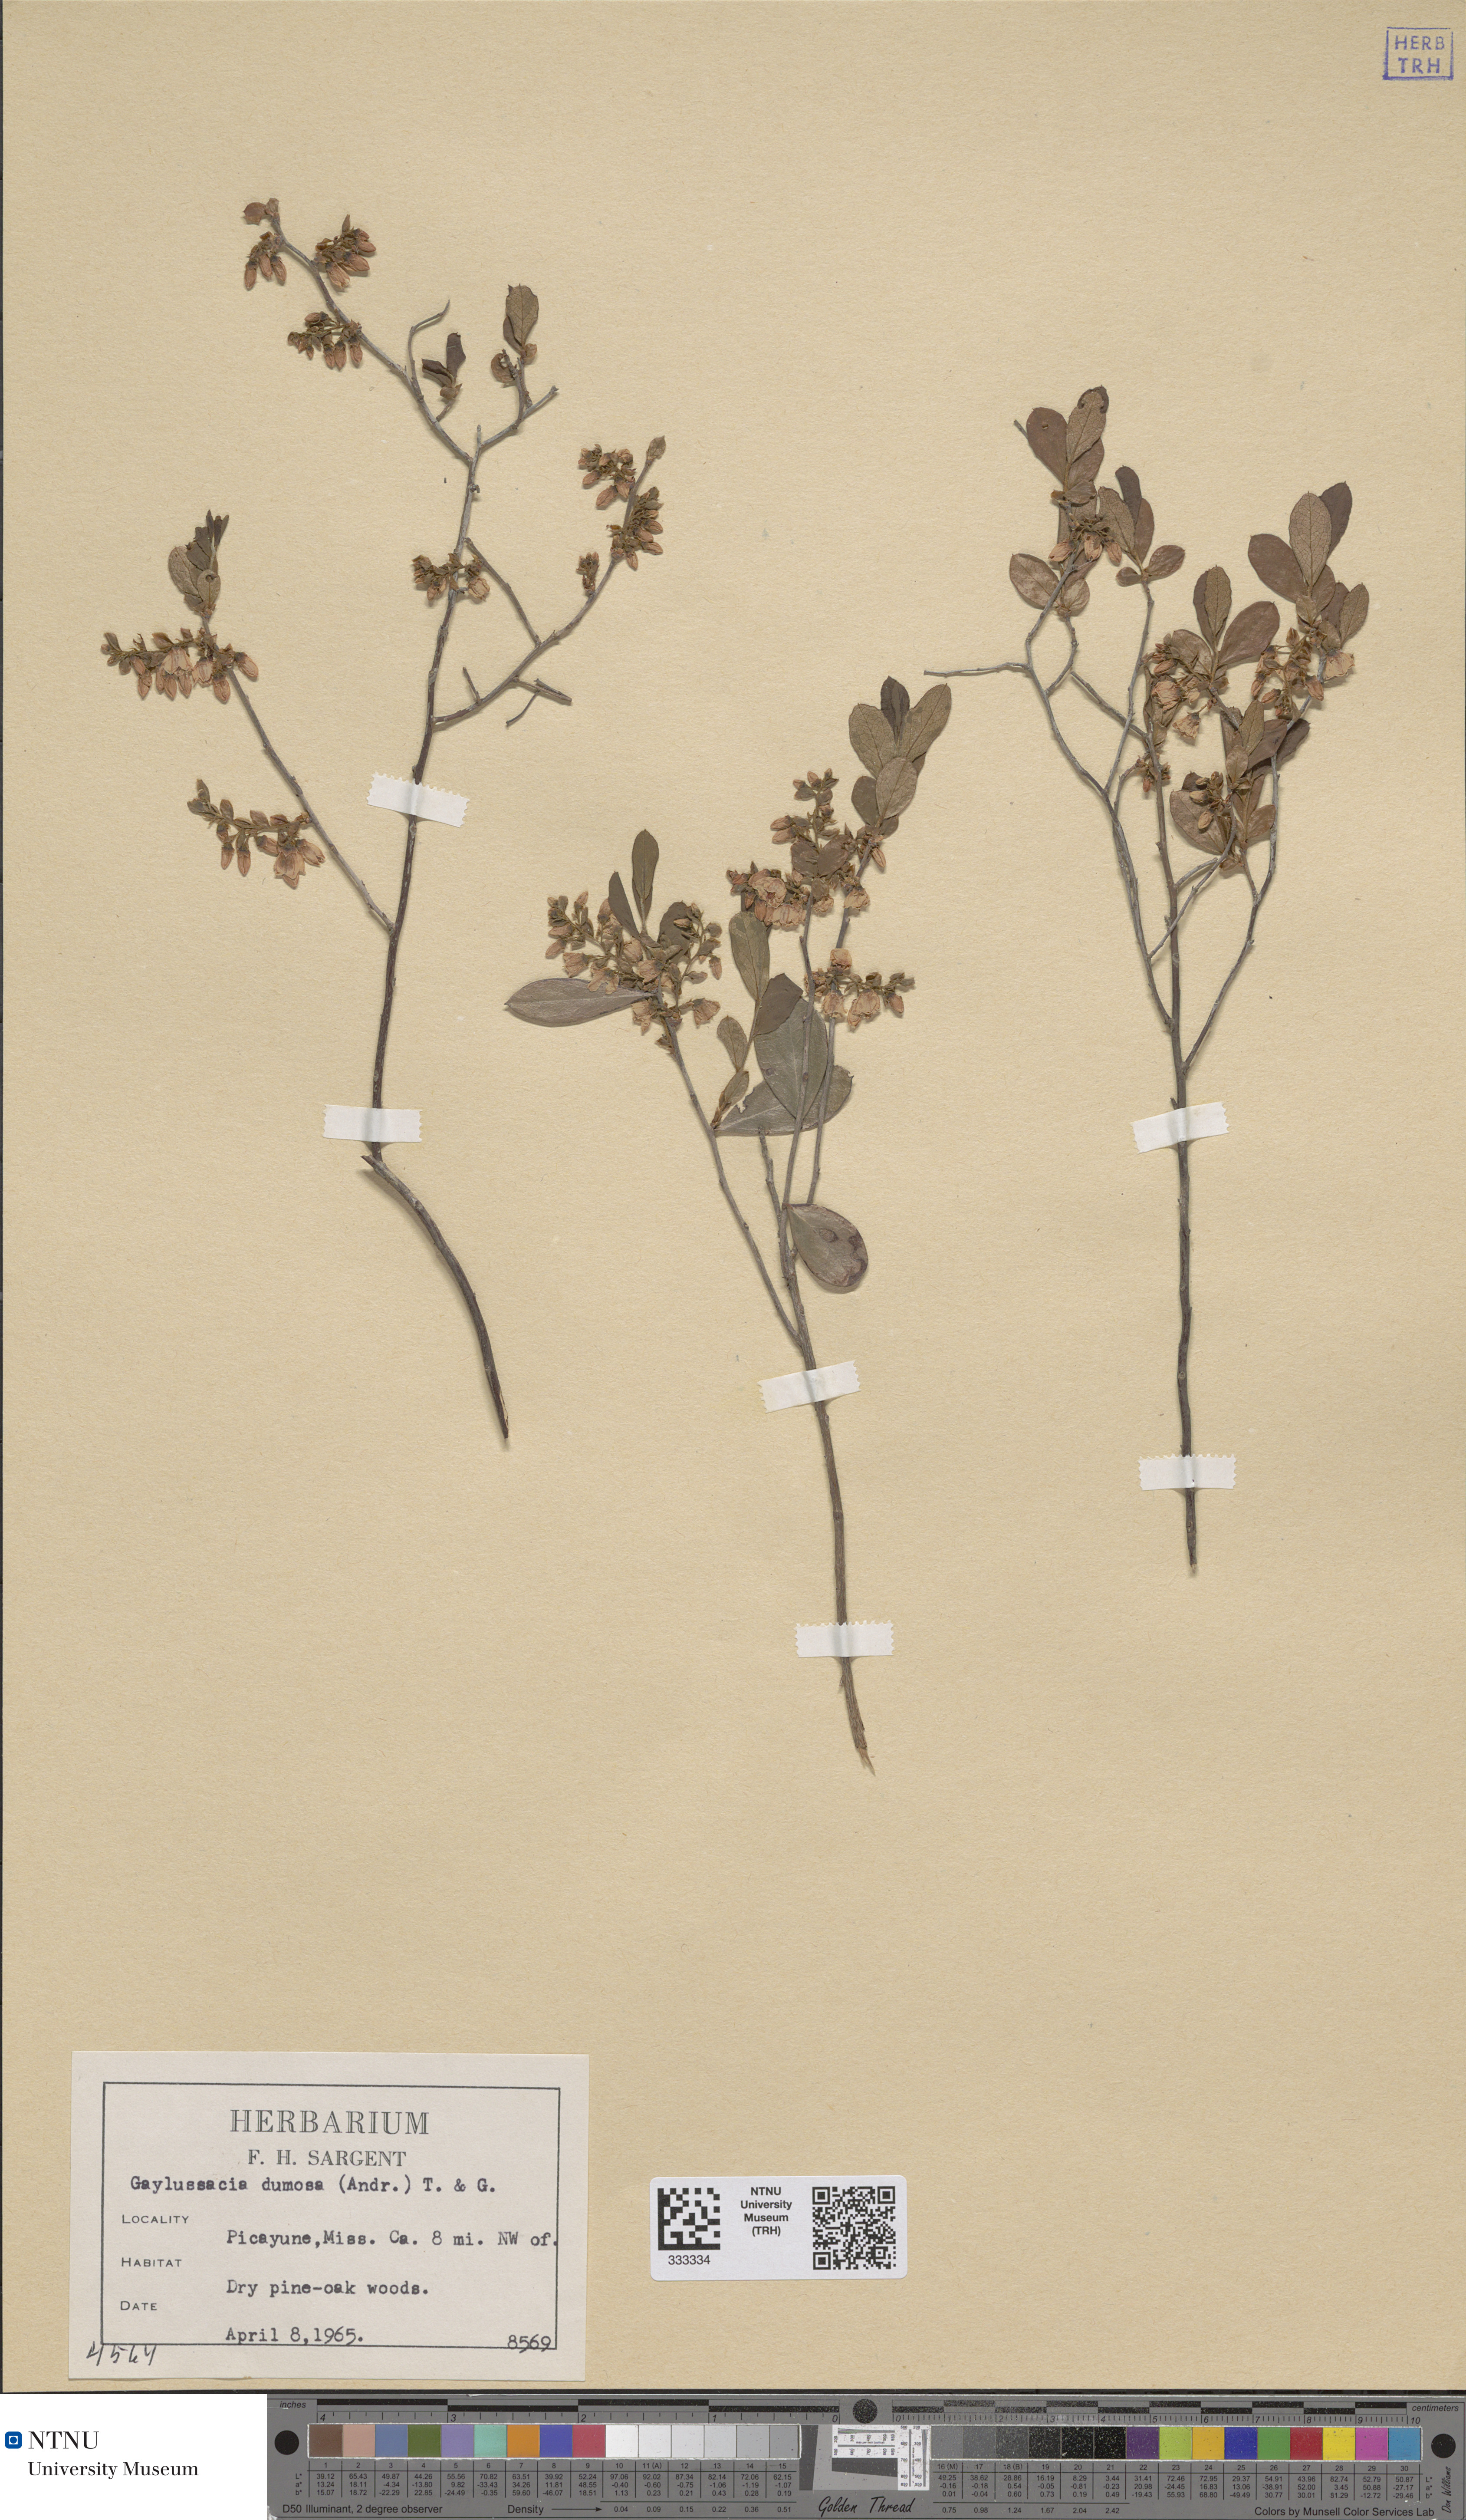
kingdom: Plantae
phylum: Tracheophyta
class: Magnoliopsida
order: Ericales
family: Ericaceae
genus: Gaylussacia
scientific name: Gaylussacia dumosa
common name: Dwarf huckleberry
